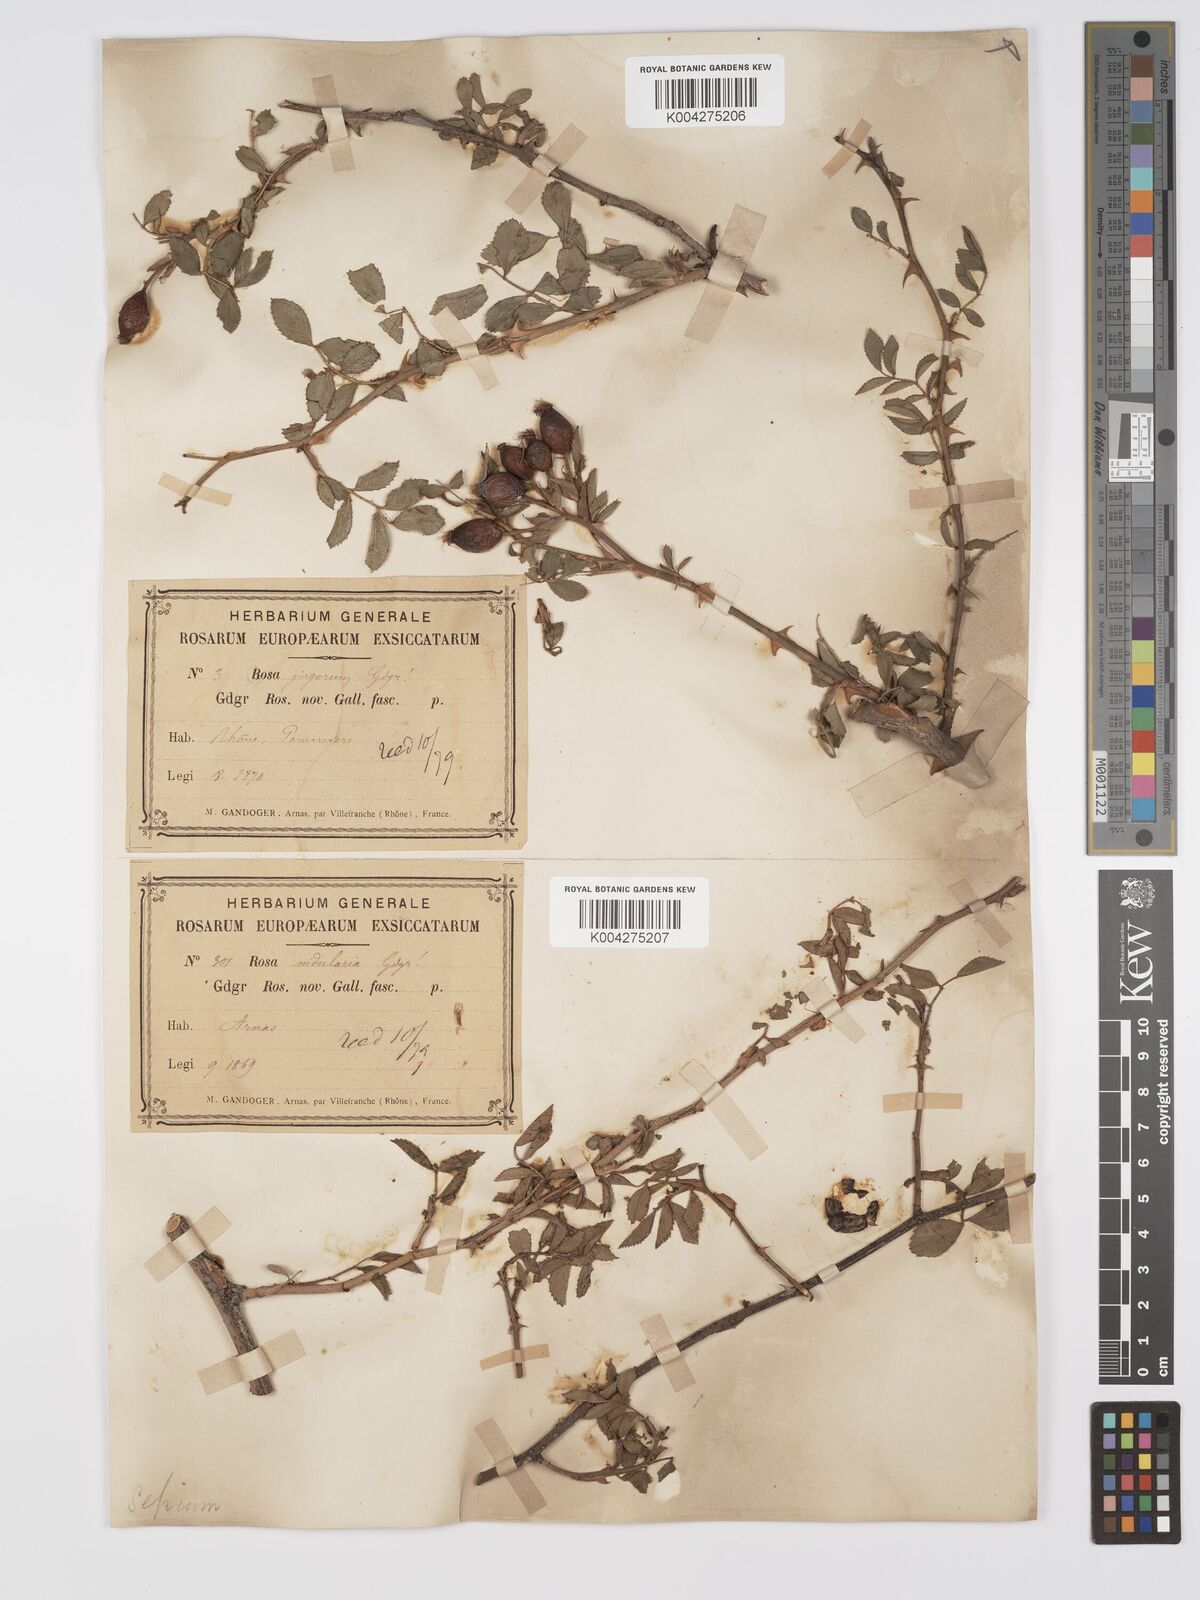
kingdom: Plantae
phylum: Tracheophyta
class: Magnoliopsida
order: Rosales
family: Rosaceae
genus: Rosa
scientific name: Rosa
